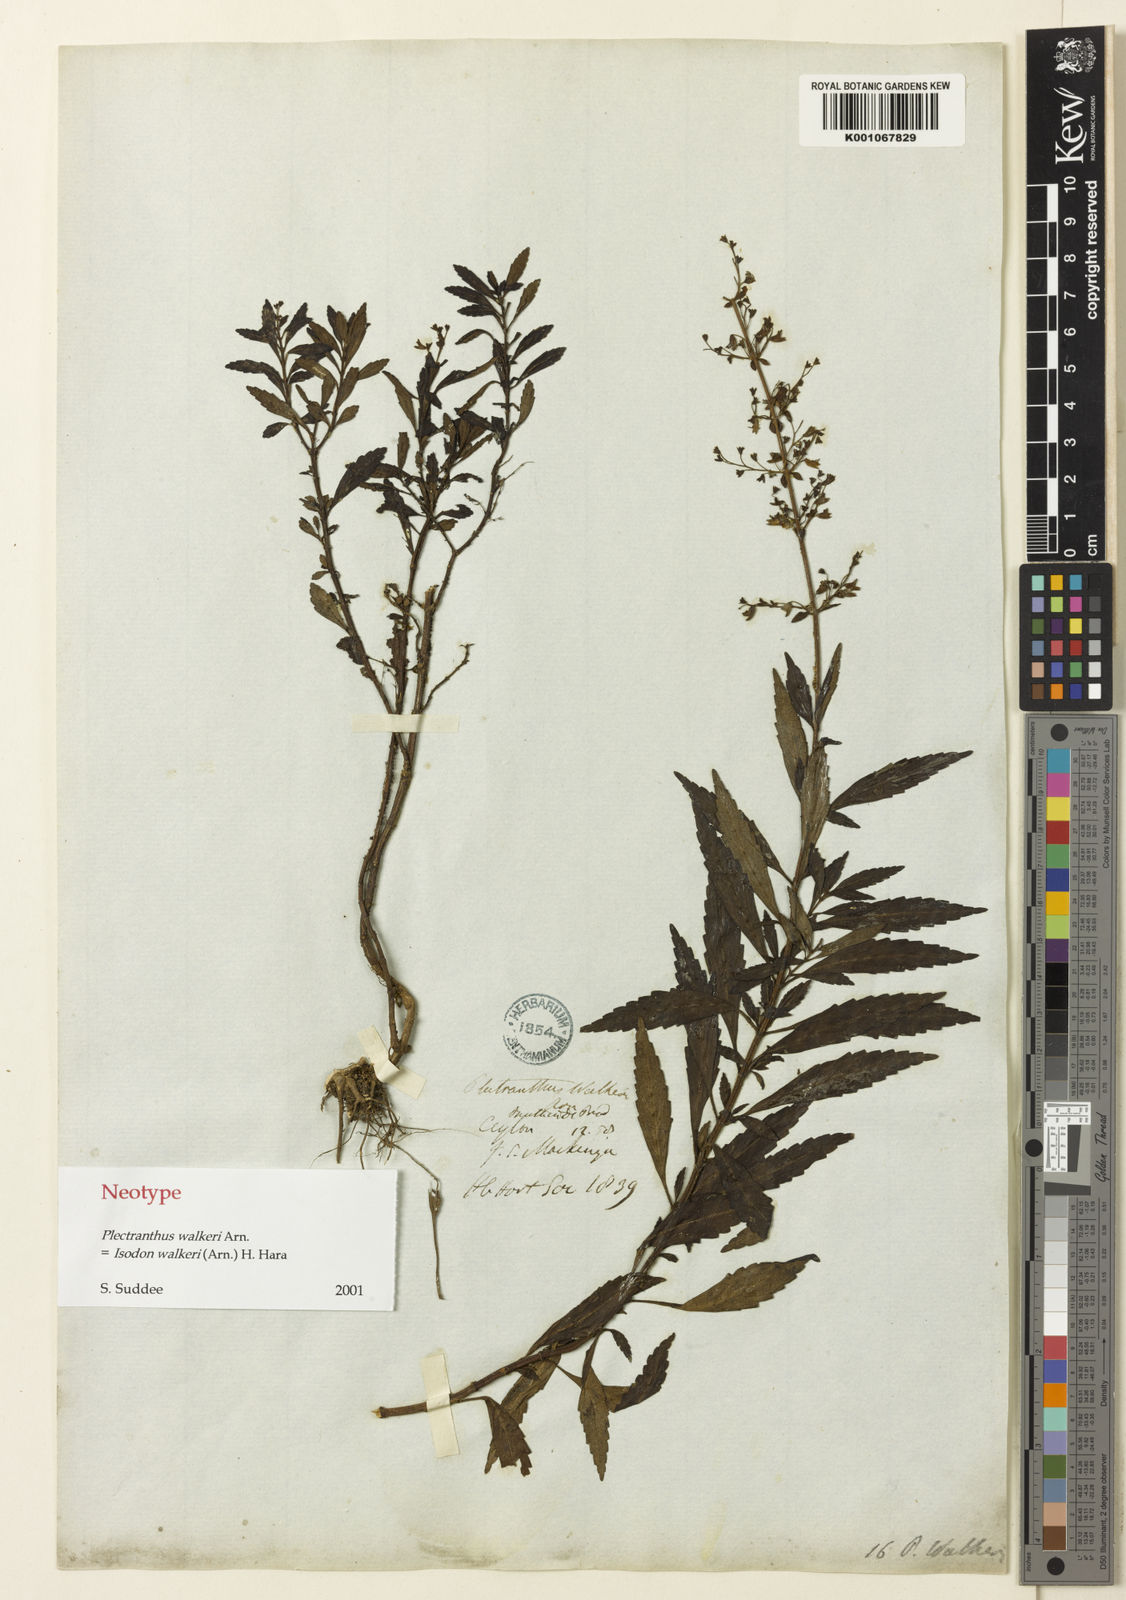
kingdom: Plantae
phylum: Tracheophyta
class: Magnoliopsida
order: Lamiales
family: Lamiaceae
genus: Isodon
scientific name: Isodon walkeri
